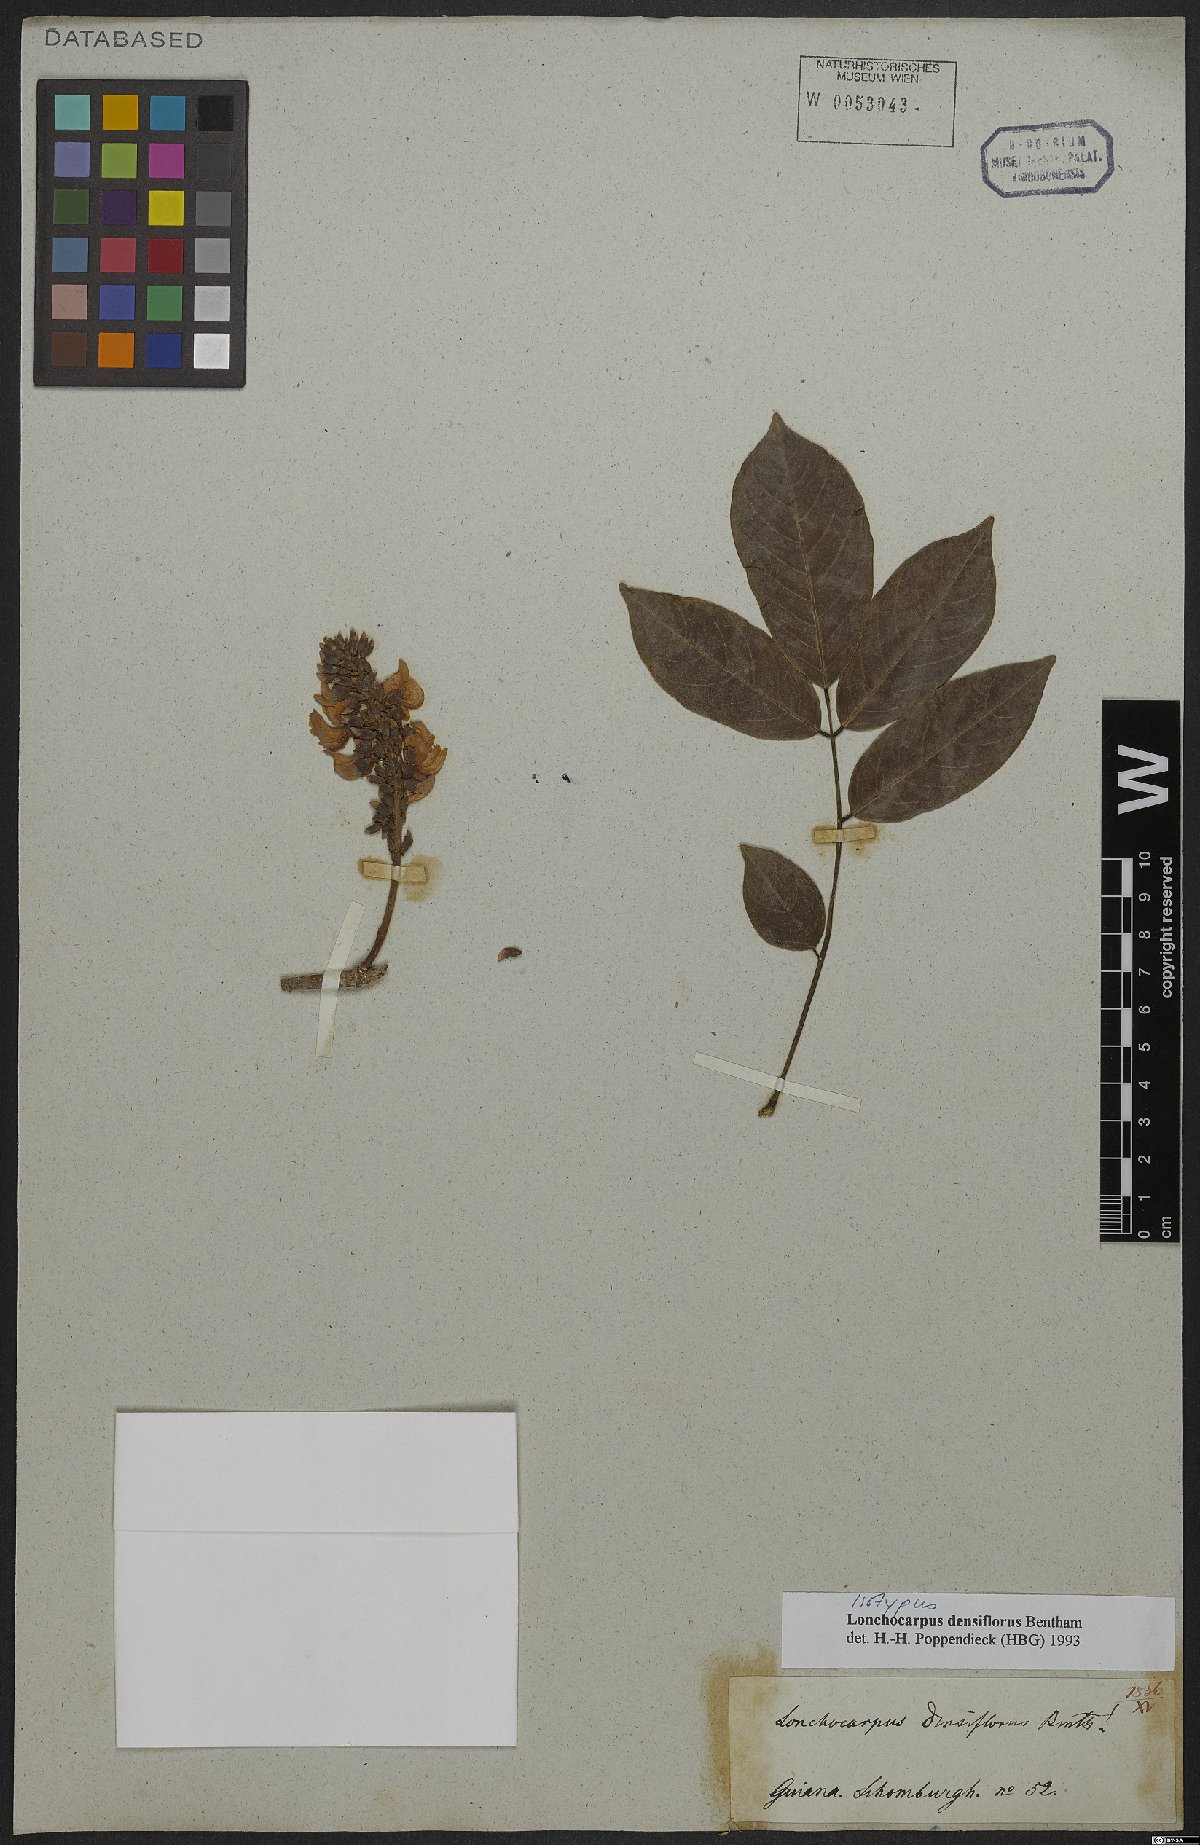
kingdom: Plantae
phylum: Tracheophyta
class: Magnoliopsida
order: Fabales
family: Fabaceae
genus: Deguelia
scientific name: Deguelia densiflora
